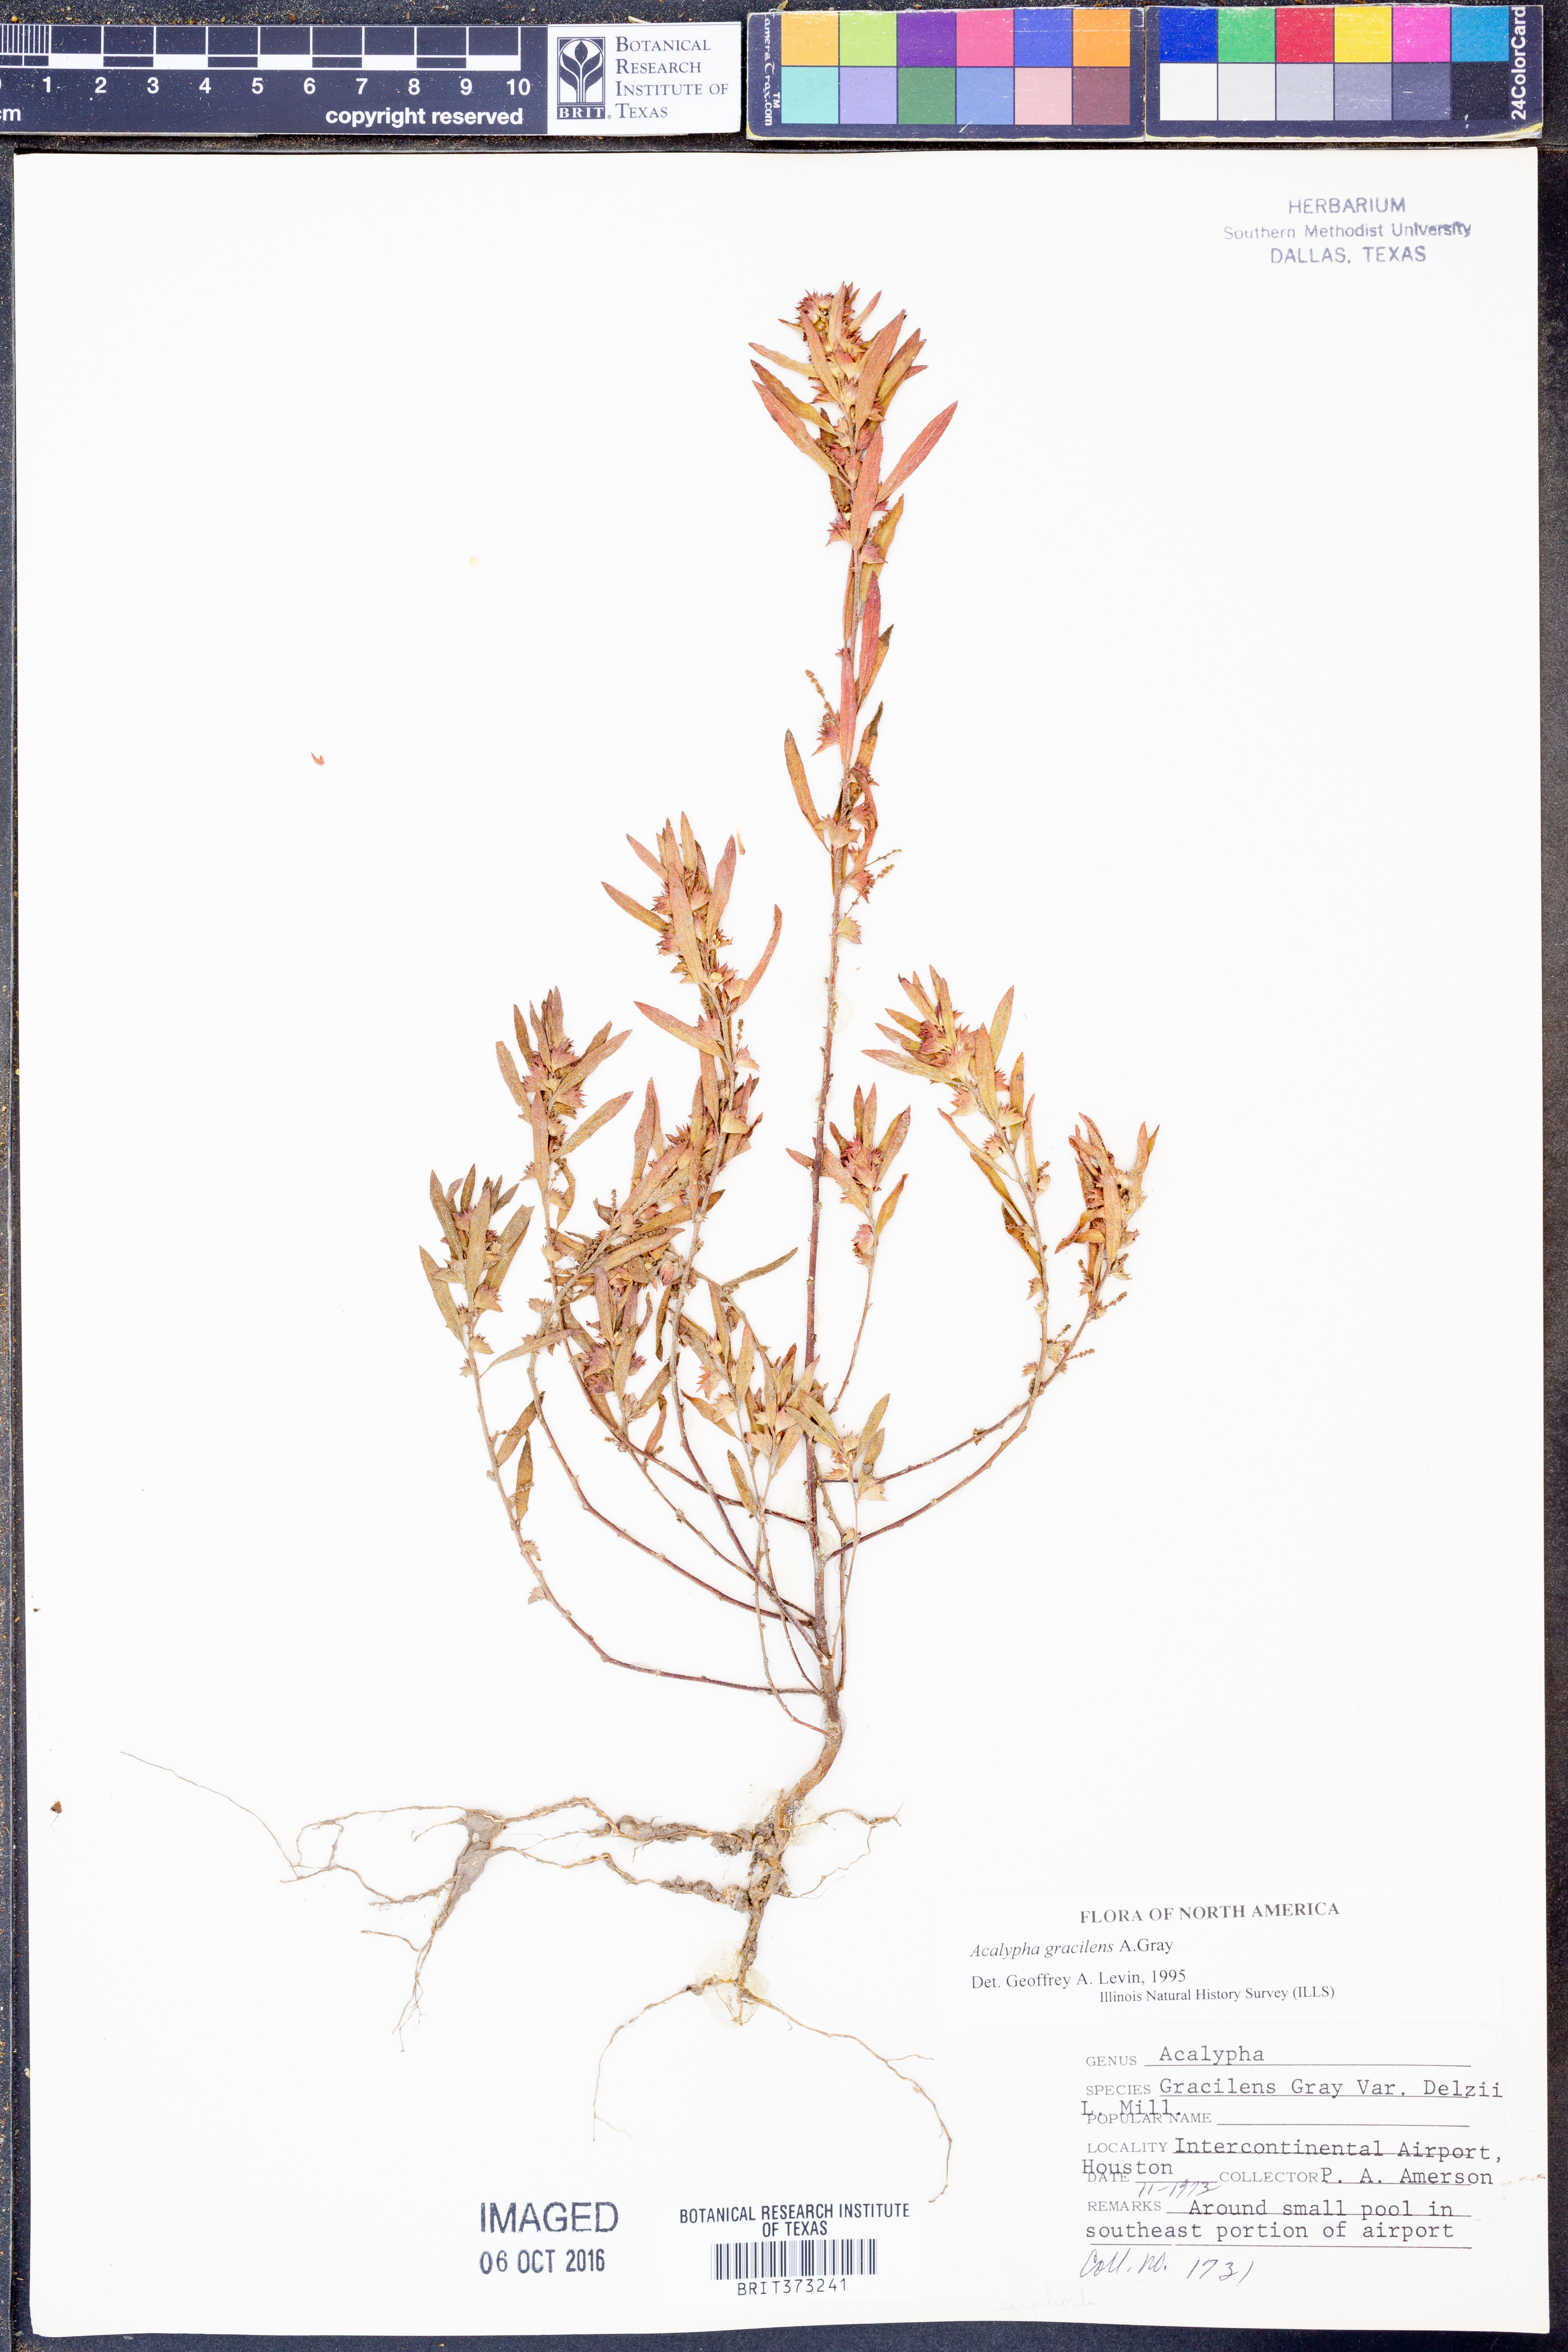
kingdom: Plantae
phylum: Tracheophyta
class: Magnoliopsida
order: Malpighiales
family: Euphorbiaceae
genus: Acalypha
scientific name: Acalypha gracilens
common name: Slender three-seeded mercury
